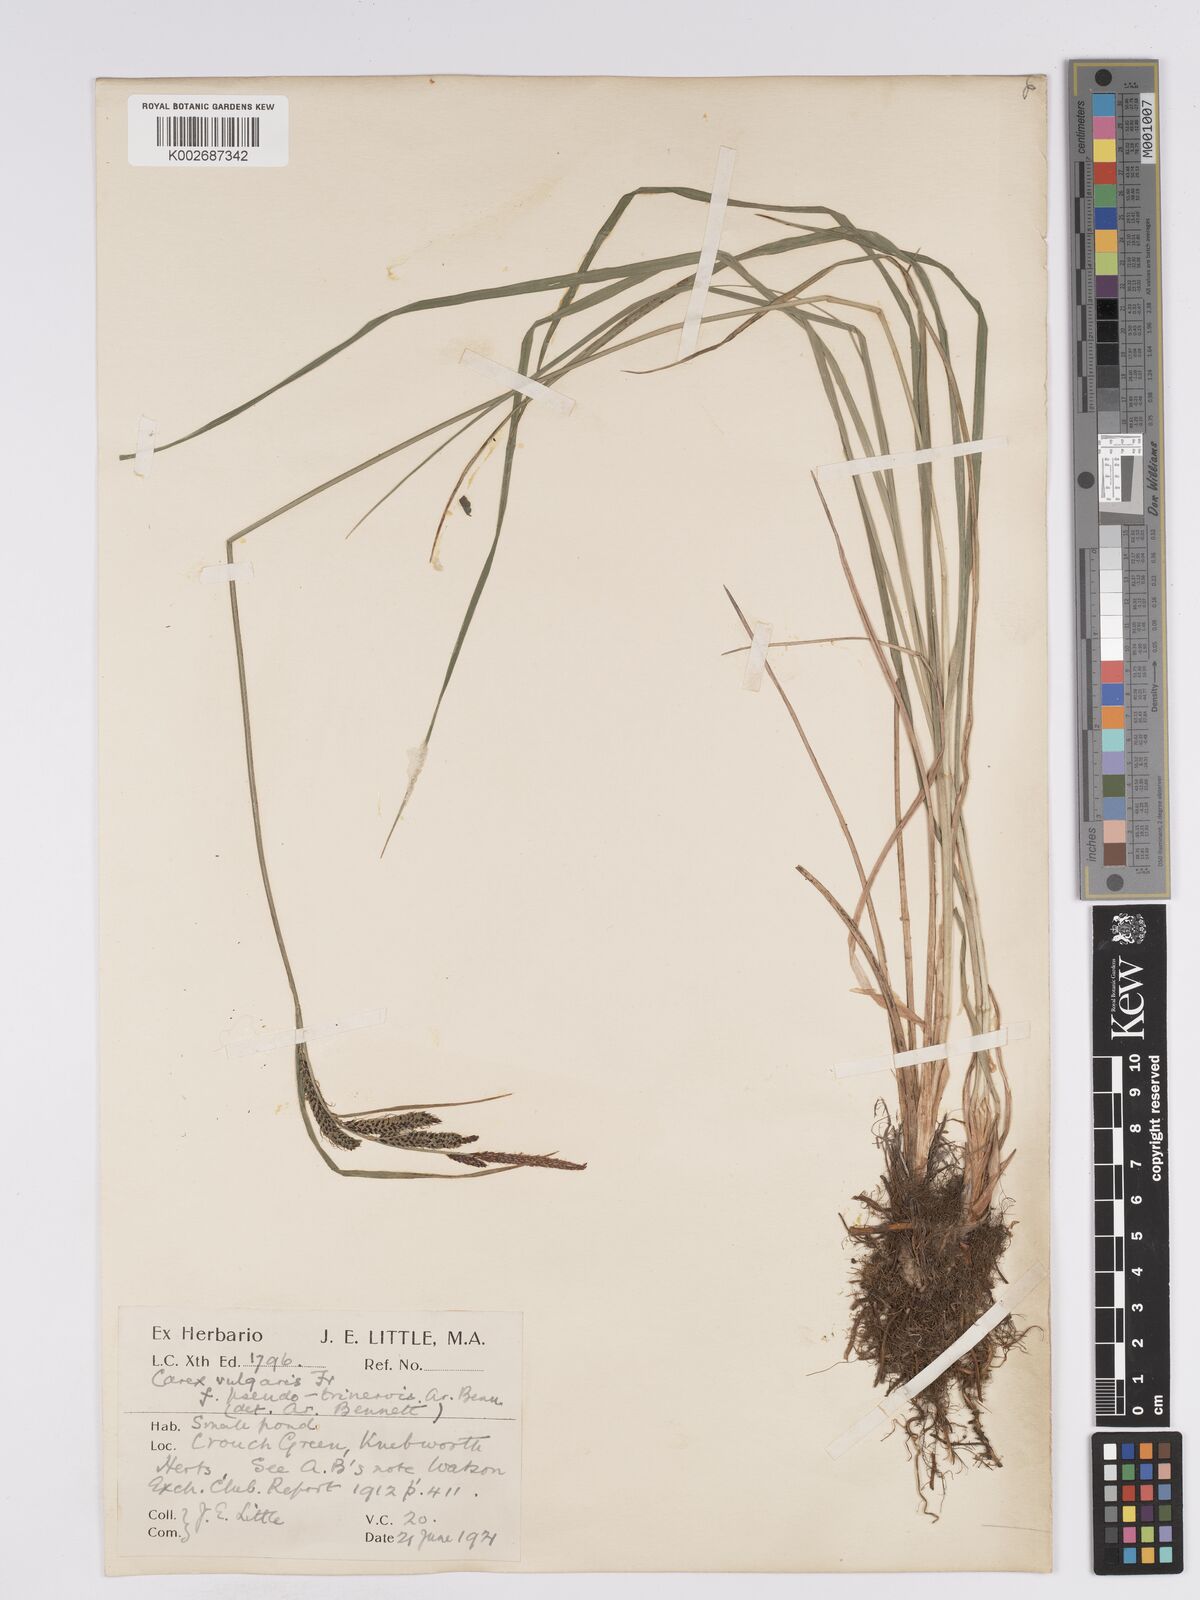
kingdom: Plantae
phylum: Tracheophyta
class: Liliopsida
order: Poales
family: Cyperaceae
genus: Carex
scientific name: Carex nigra
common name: Common sedge
